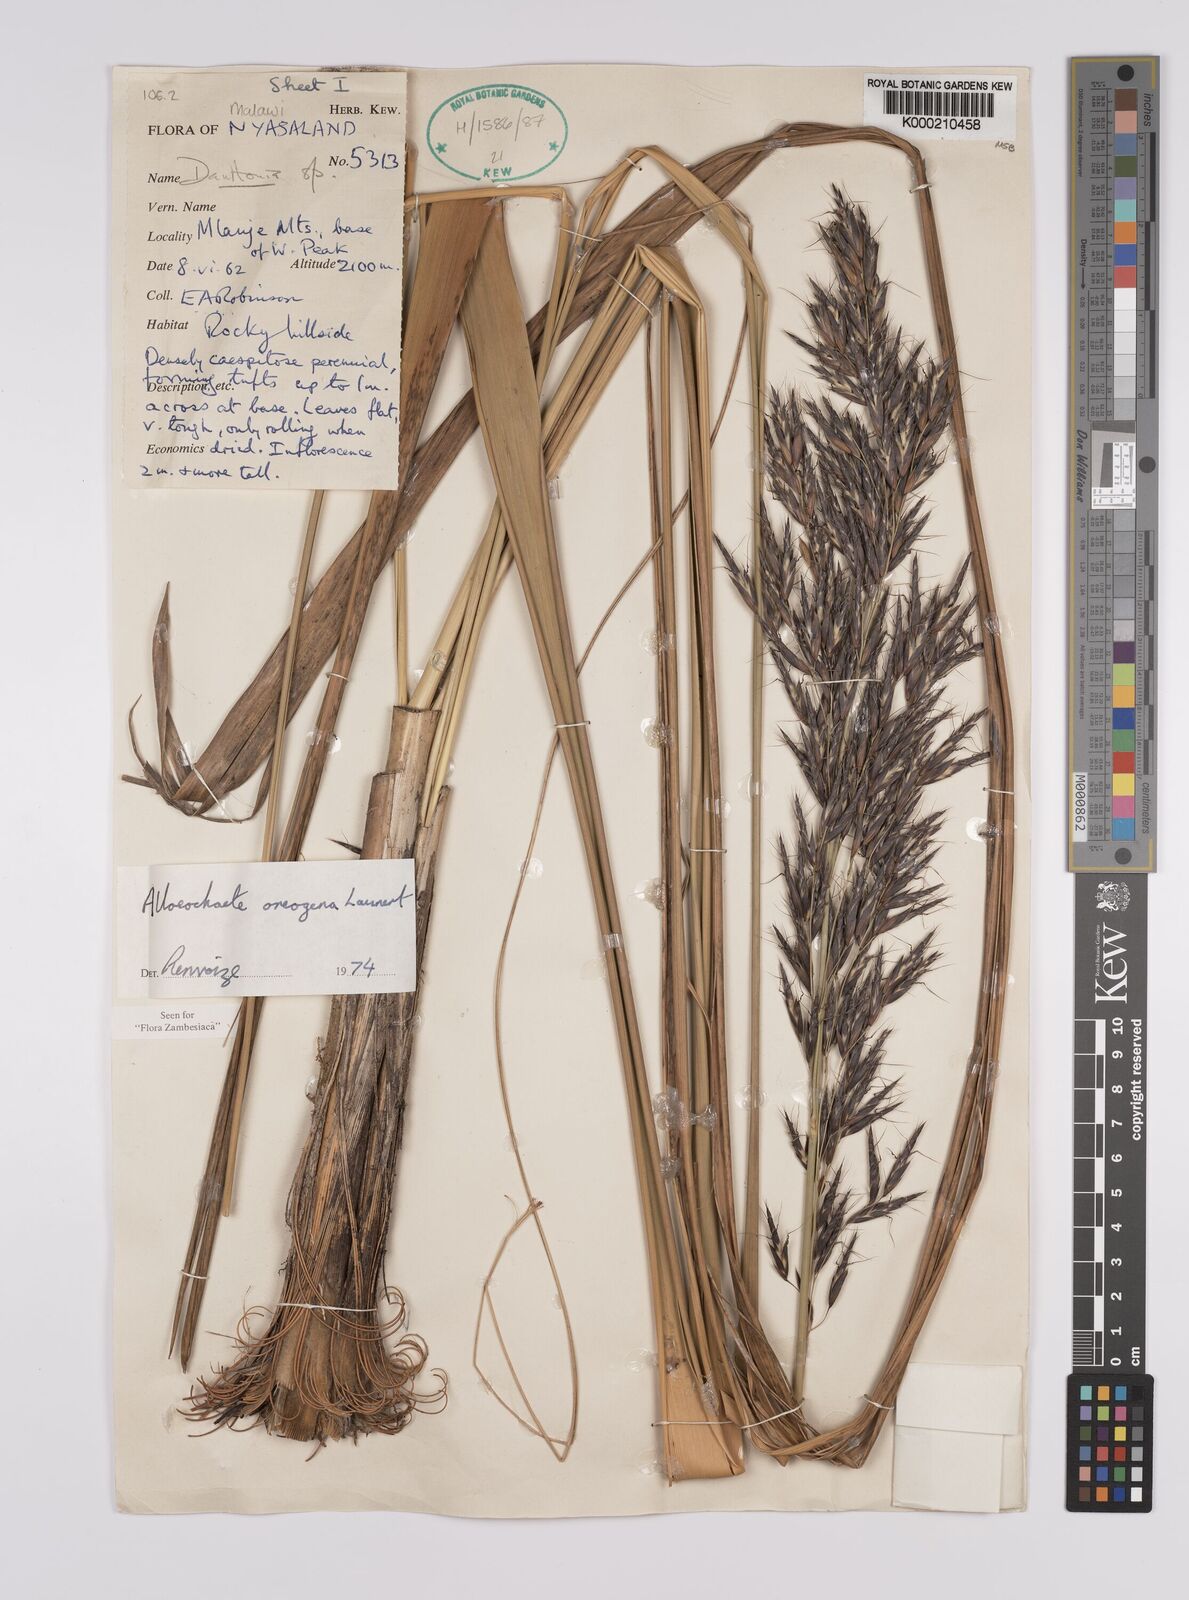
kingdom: Plantae
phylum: Tracheophyta
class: Liliopsida
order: Poales
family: Poaceae
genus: Alloeochaete
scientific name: Alloeochaete oreogena
